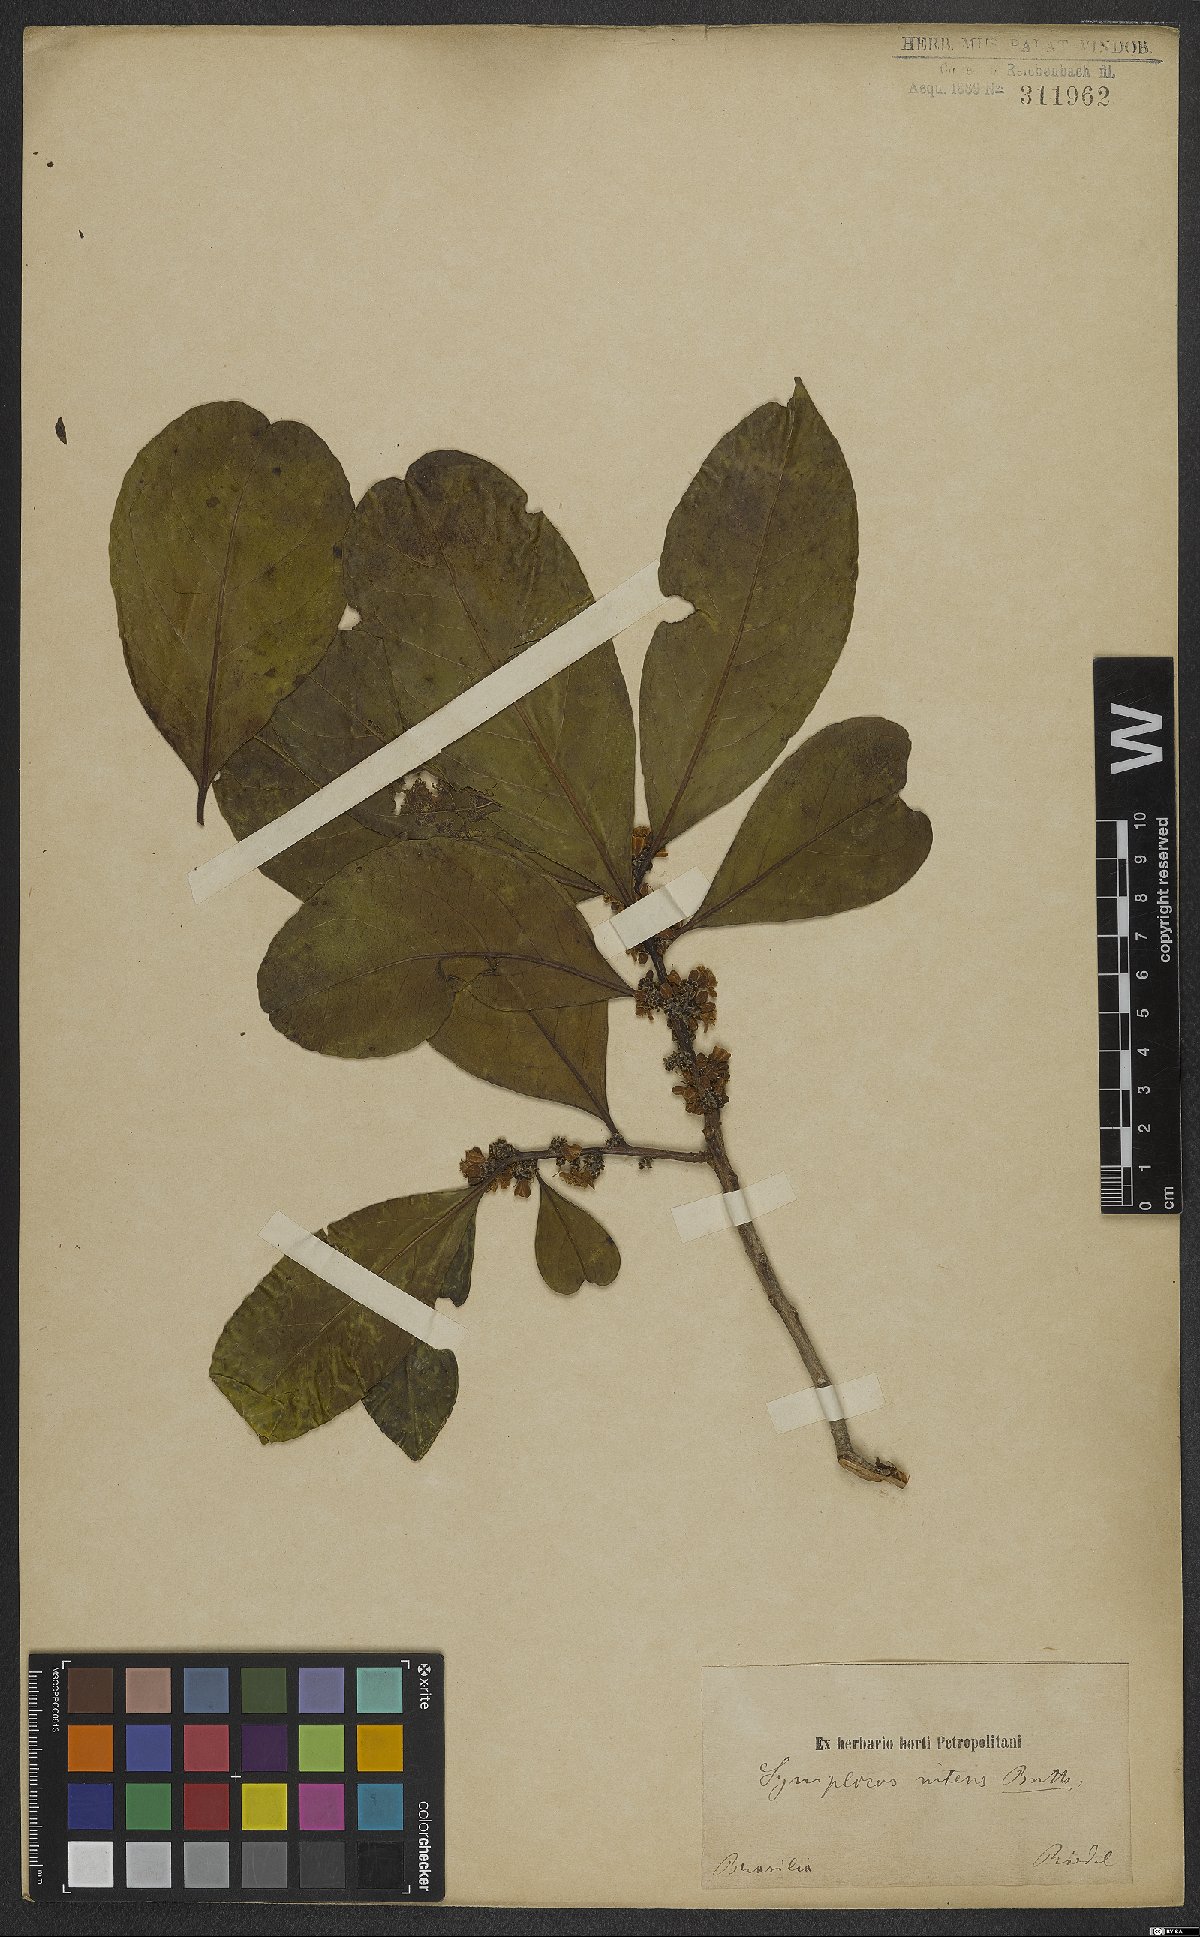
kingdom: Plantae
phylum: Tracheophyta
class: Magnoliopsida
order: Ericales
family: Symplocaceae
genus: Symplocos
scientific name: Symplocos nitens
